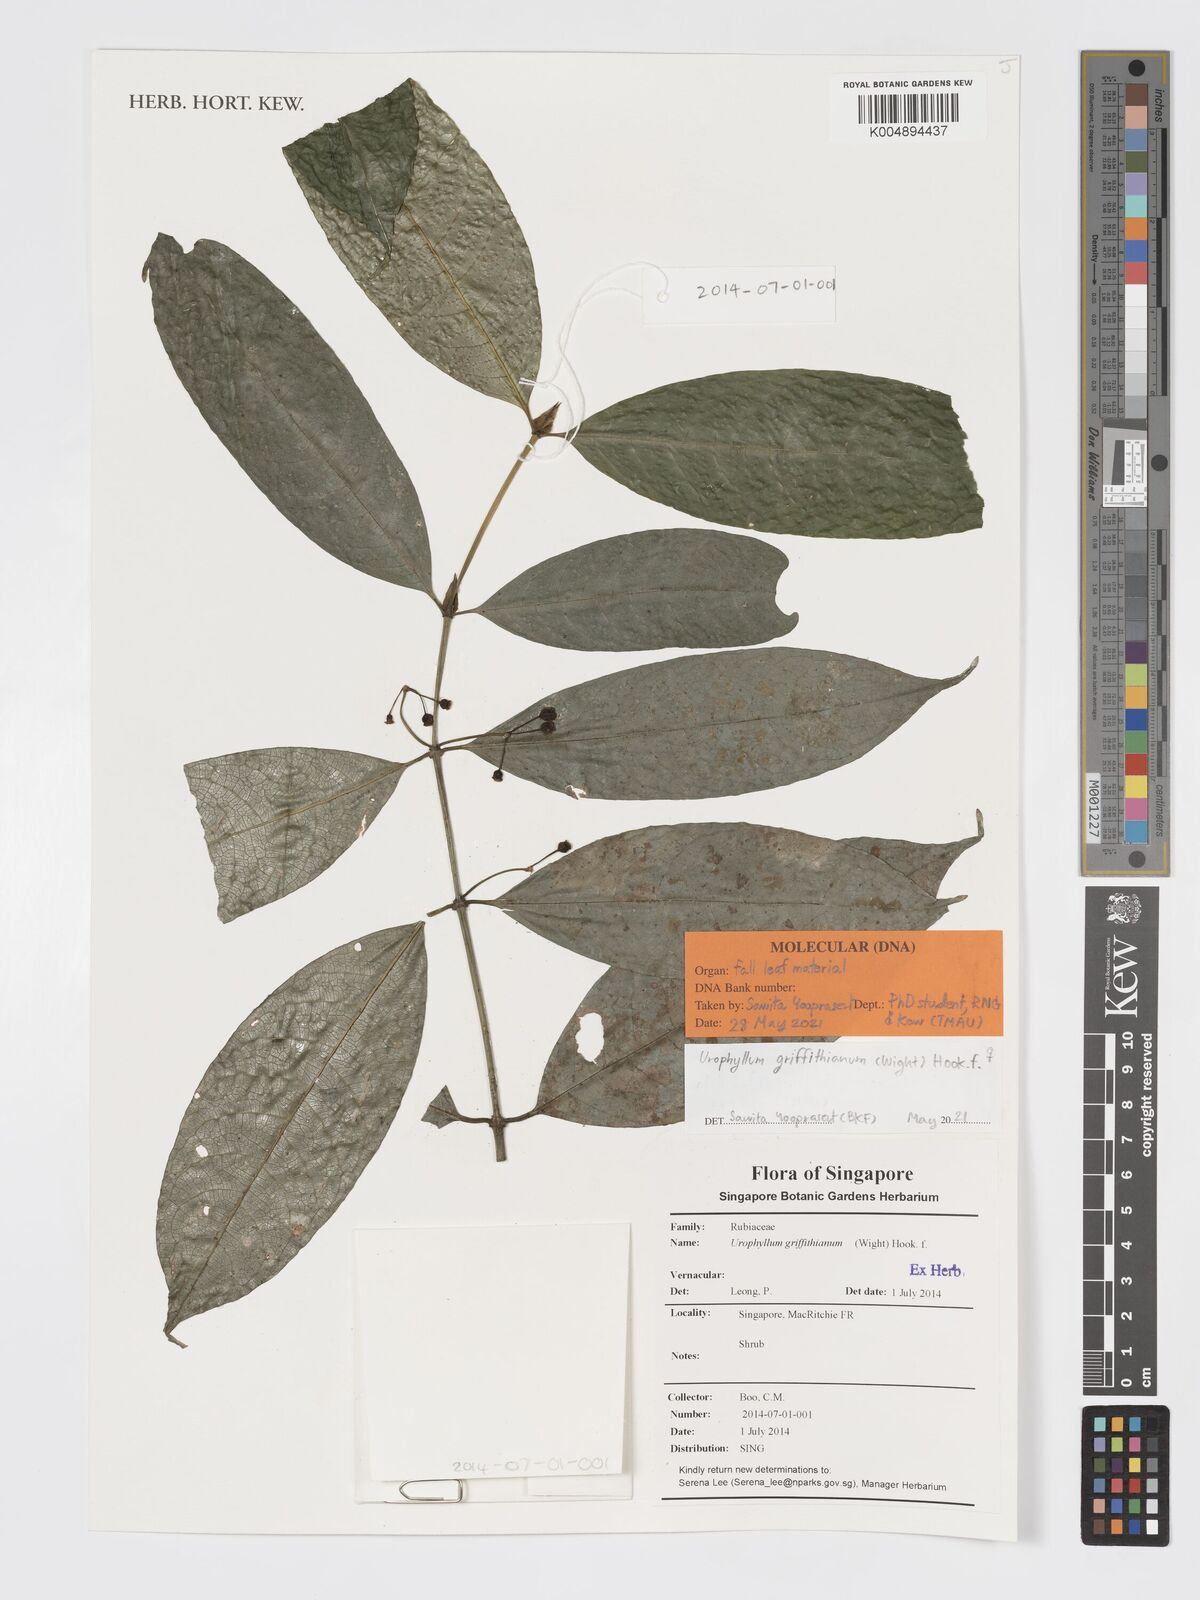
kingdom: Plantae
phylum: Tracheophyta
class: Magnoliopsida
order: Gentianales
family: Rubiaceae
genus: Urophyllum
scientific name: Urophyllum griffithianum
